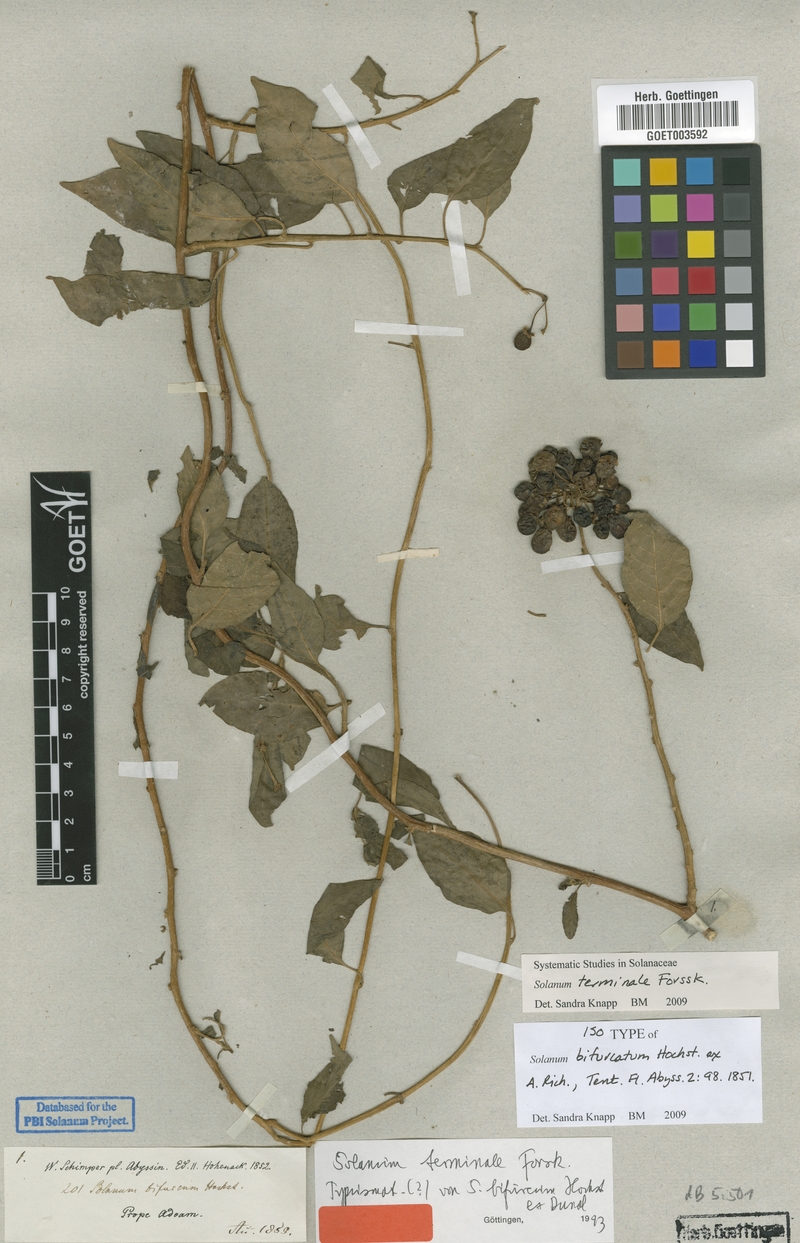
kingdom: Plantae
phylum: Tracheophyta
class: Magnoliopsida
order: Solanales
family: Solanaceae
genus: Solanum
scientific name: Solanum terminale
